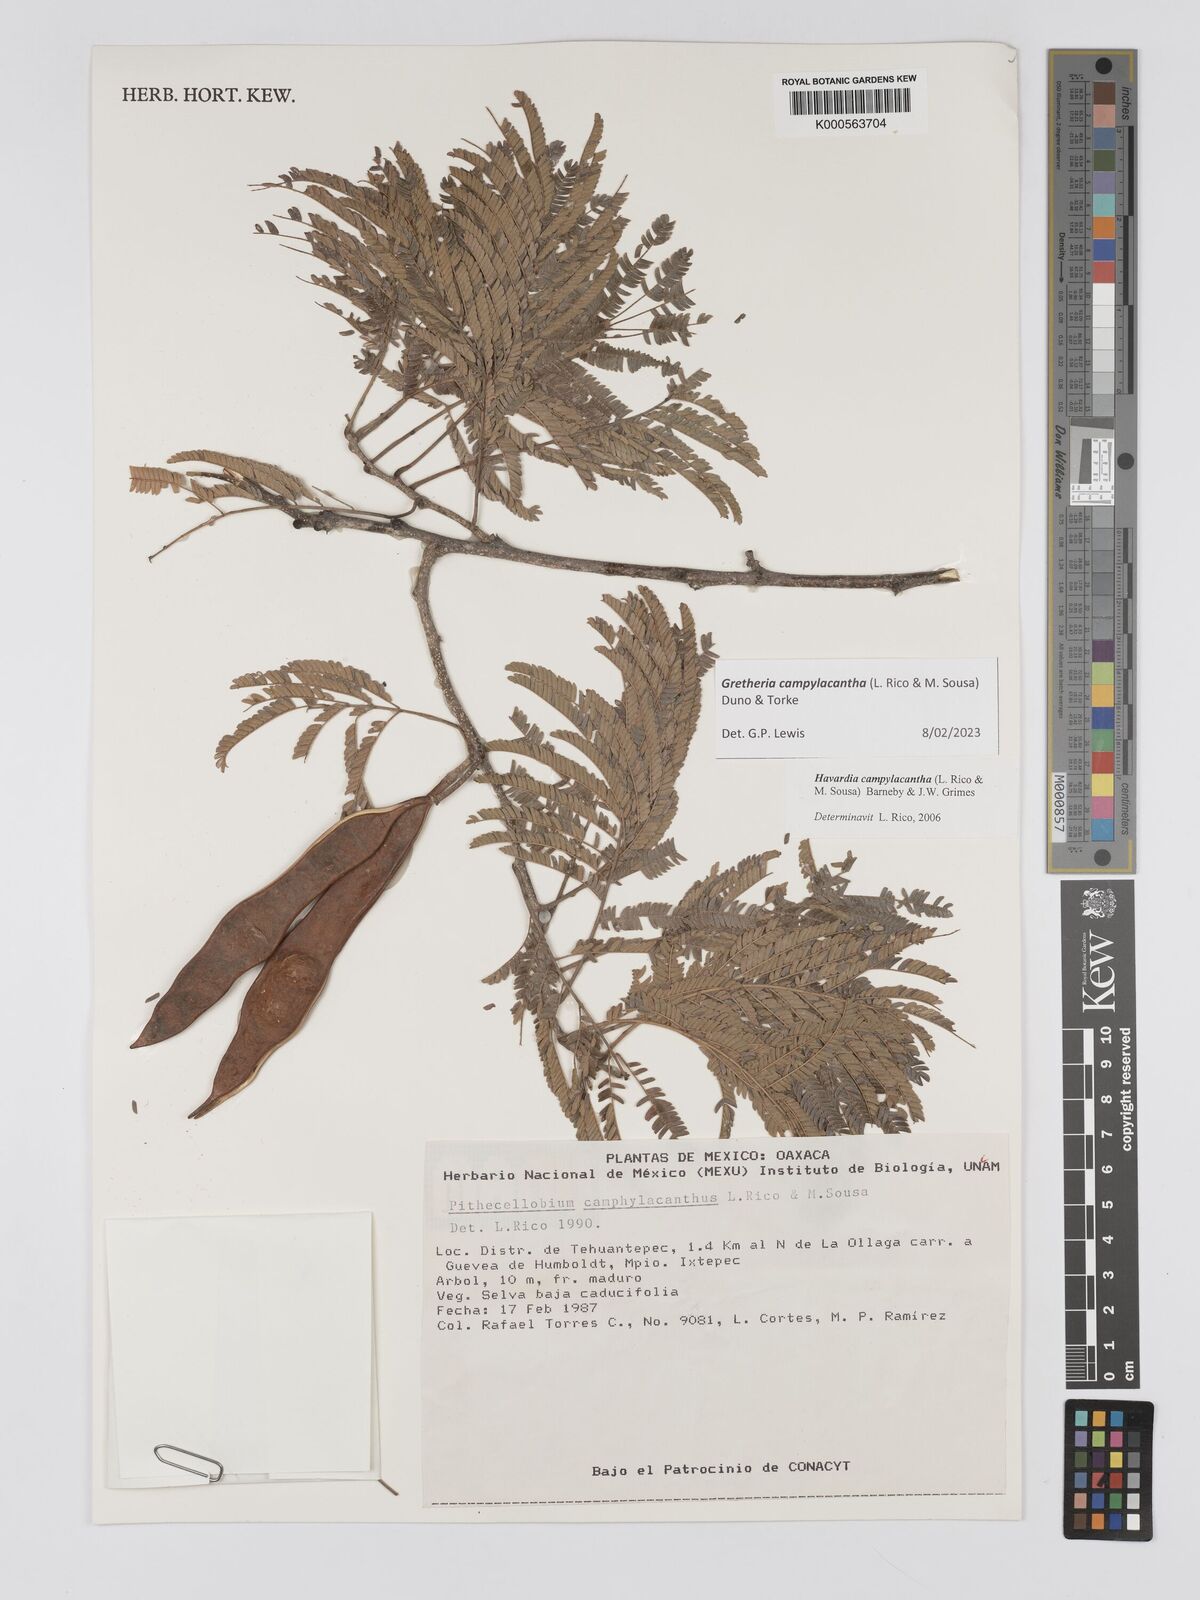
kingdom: Plantae
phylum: Tracheophyta
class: Magnoliopsida
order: Fabales
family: Fabaceae
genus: Havardia
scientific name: Havardia campylacantha
